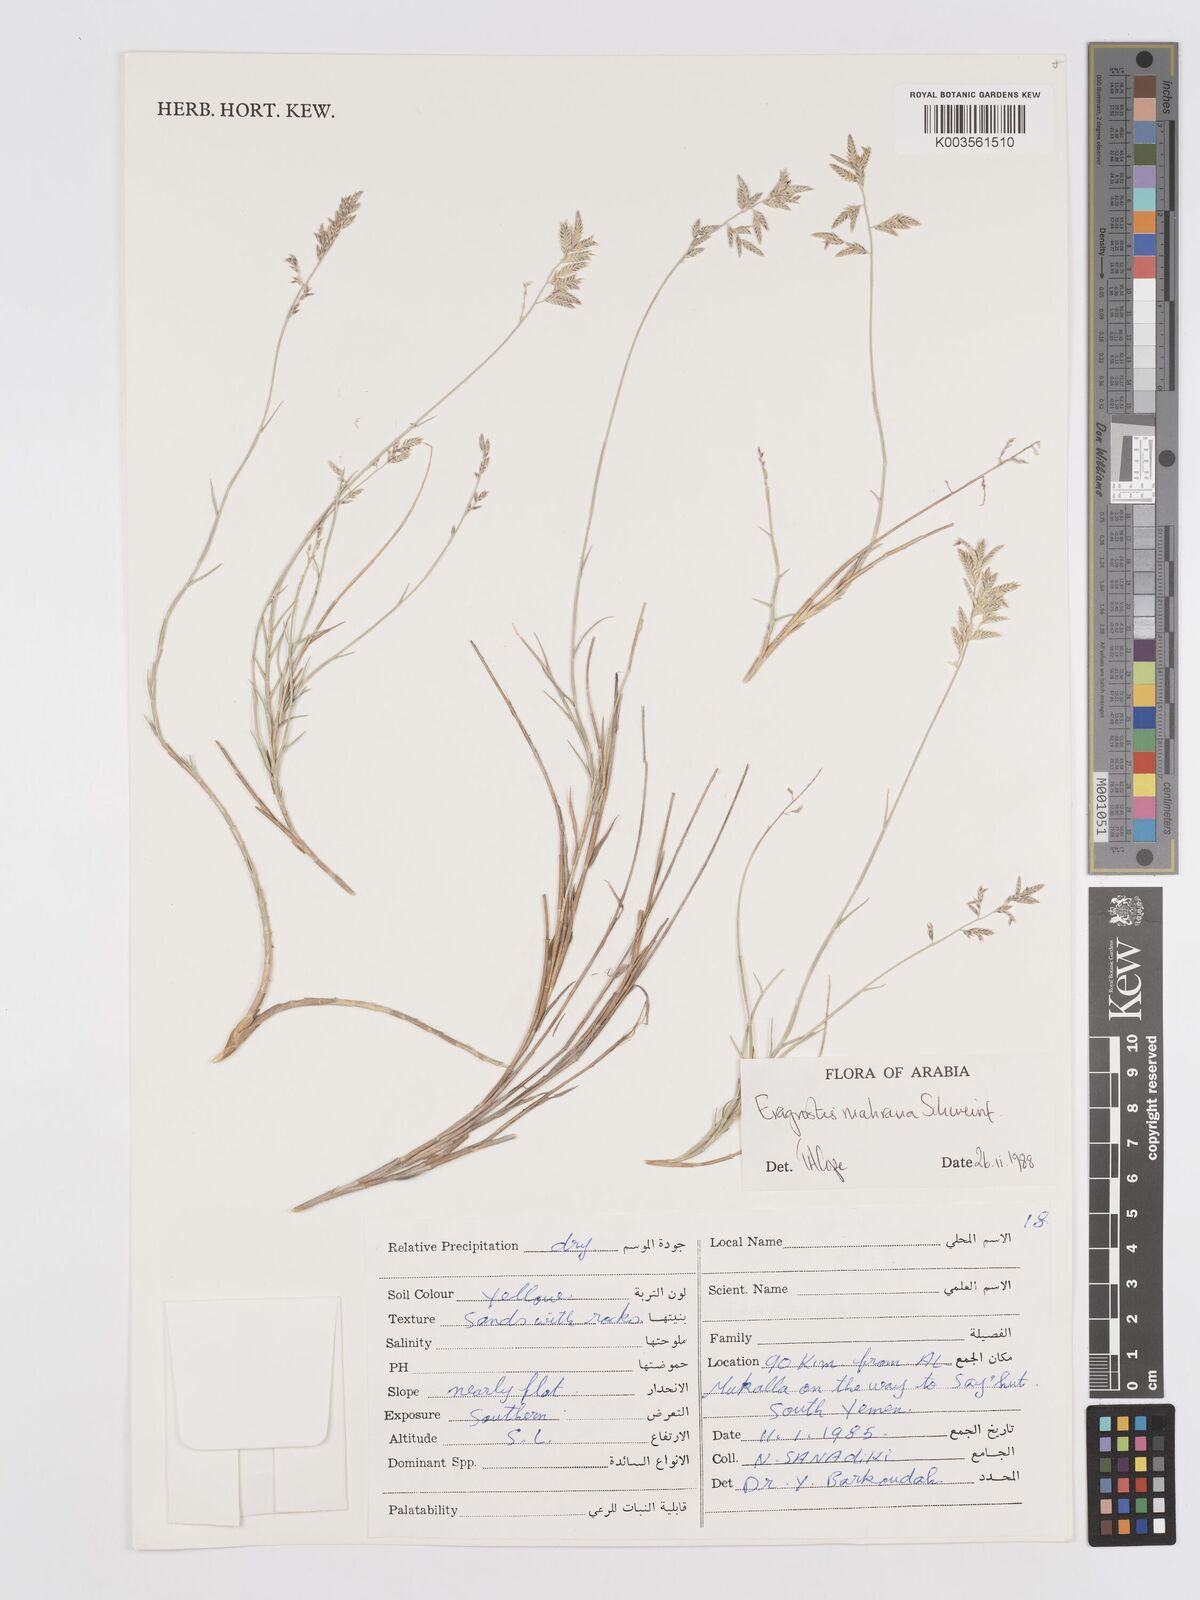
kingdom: Plantae
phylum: Tracheophyta
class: Liliopsida
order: Poales
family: Poaceae
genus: Eragrostis
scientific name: Eragrostis mahrana
